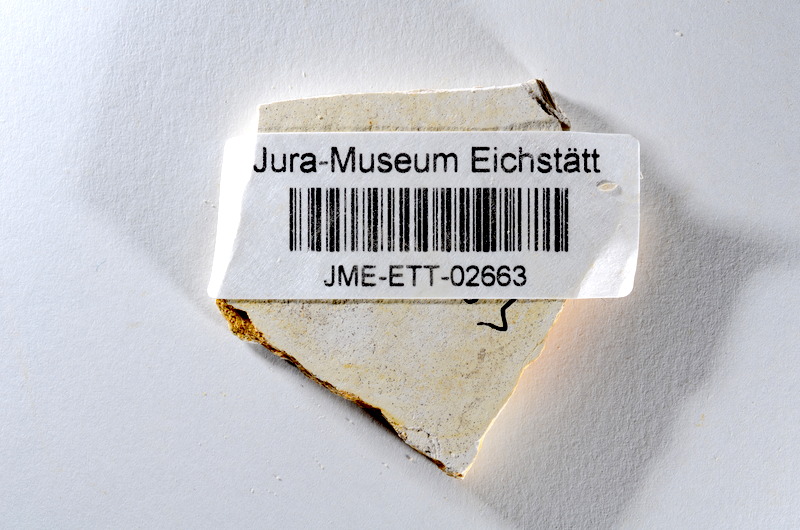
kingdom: Animalia
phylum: Chordata
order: Salmoniformes
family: Orthogonikleithridae
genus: Orthogonikleithrus
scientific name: Orthogonikleithrus hoelli
